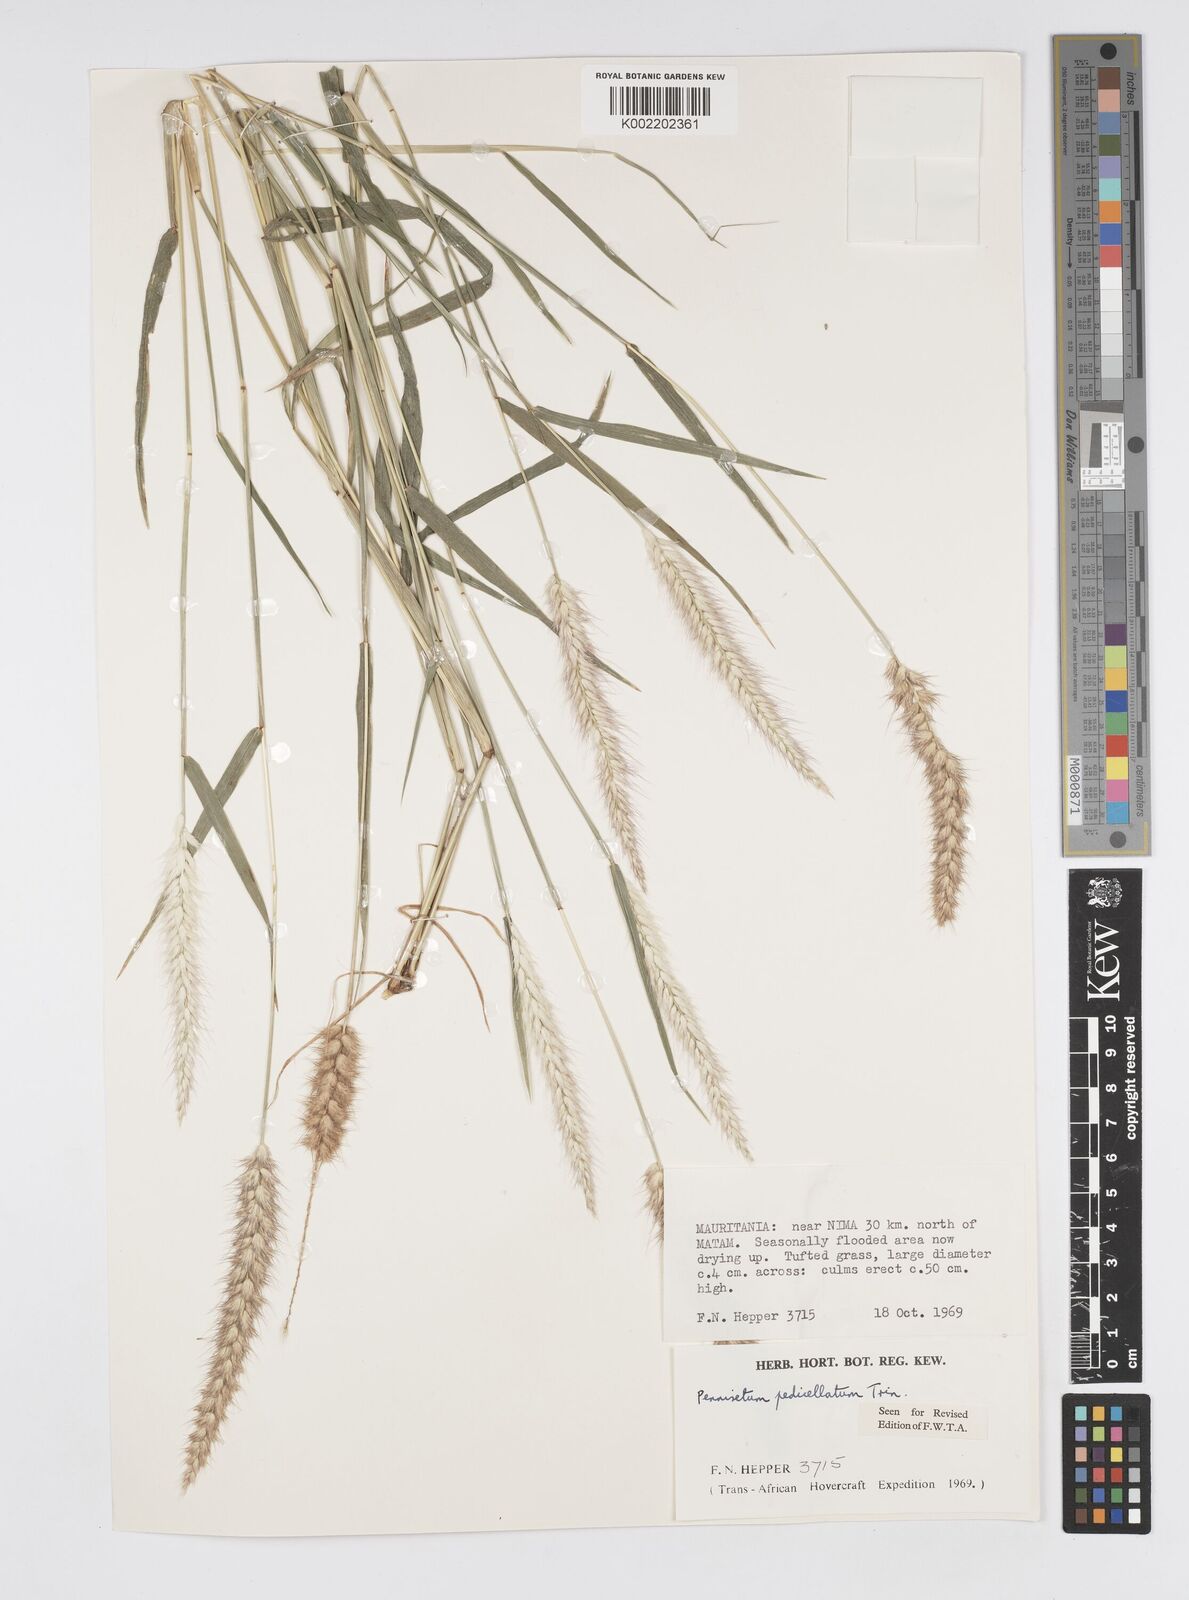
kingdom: Plantae
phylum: Tracheophyta
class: Liliopsida
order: Poales
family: Poaceae
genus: Cenchrus
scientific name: Cenchrus pedicellatus
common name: Hairy fountain grass
